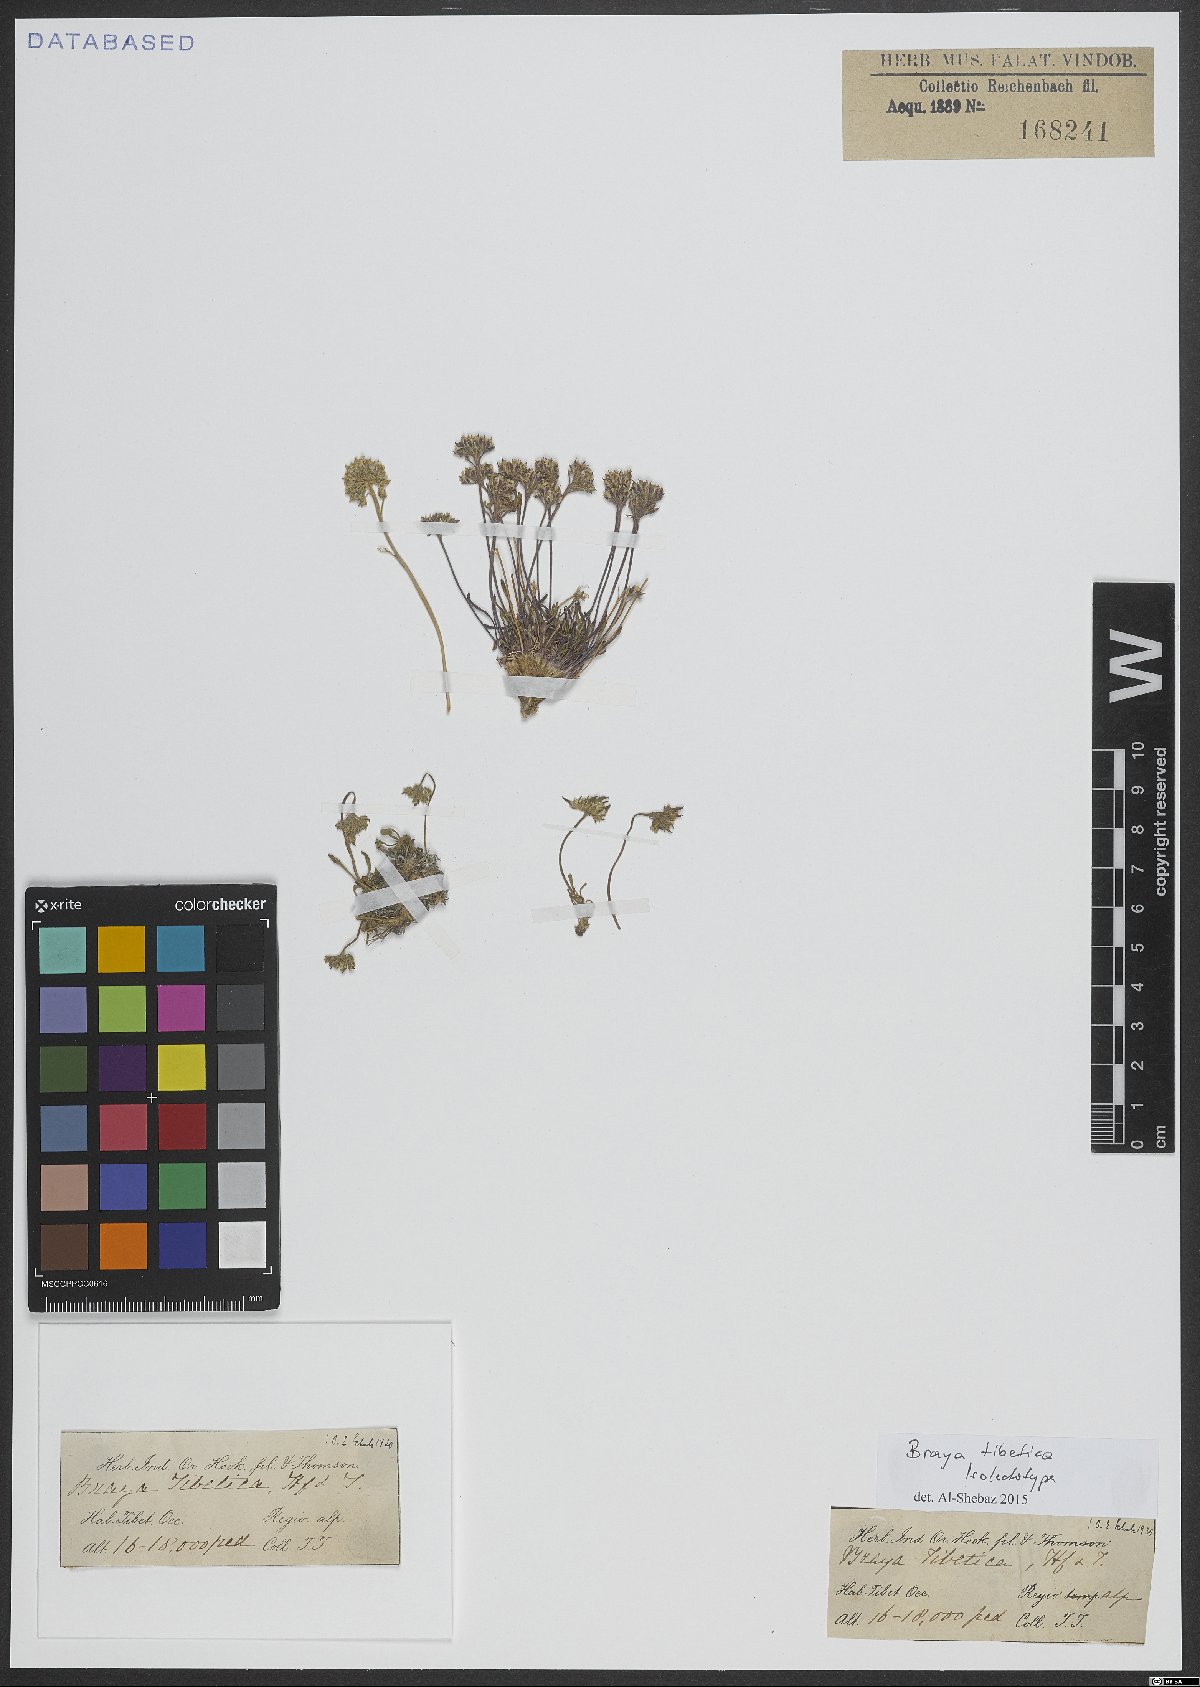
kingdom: Plantae
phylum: Tracheophyta
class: Magnoliopsida
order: Brassicales
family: Brassicaceae
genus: Braya
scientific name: Braya tibetica
